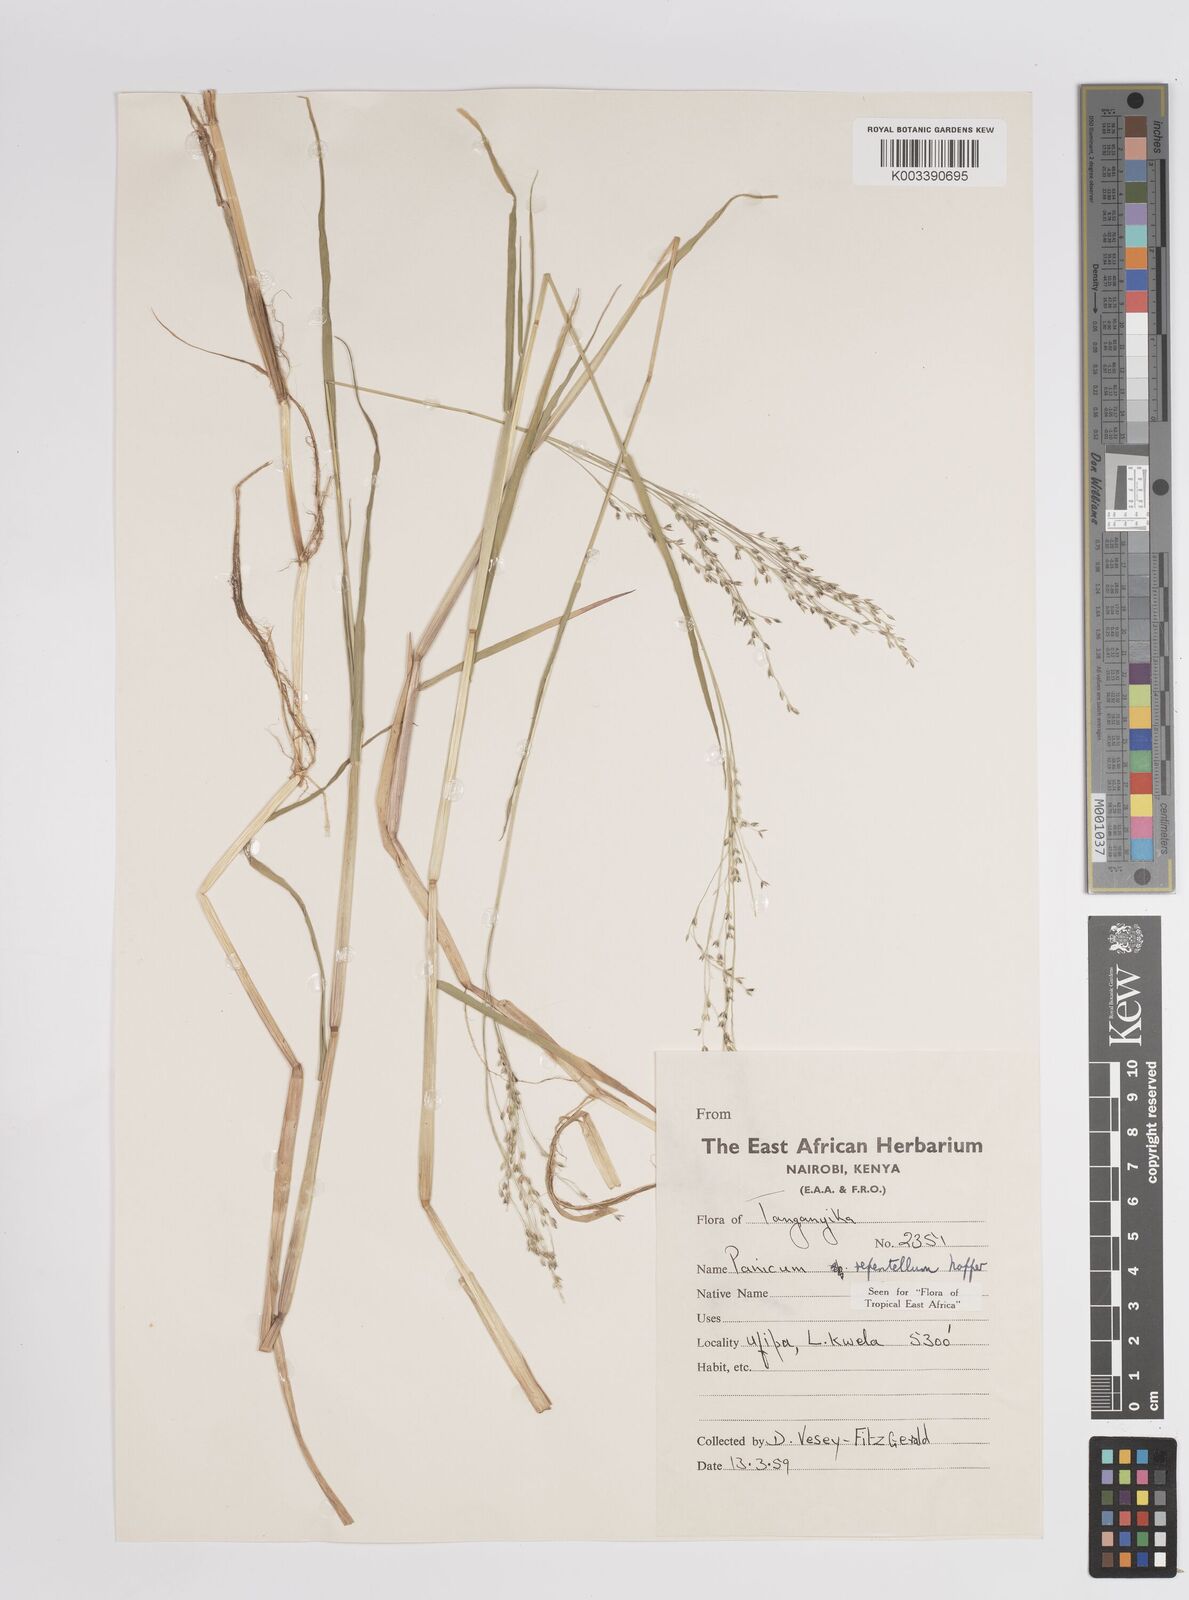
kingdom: Plantae
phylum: Tracheophyta
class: Liliopsida
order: Poales
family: Poaceae
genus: Panicum
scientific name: Panicum hygrocharis
